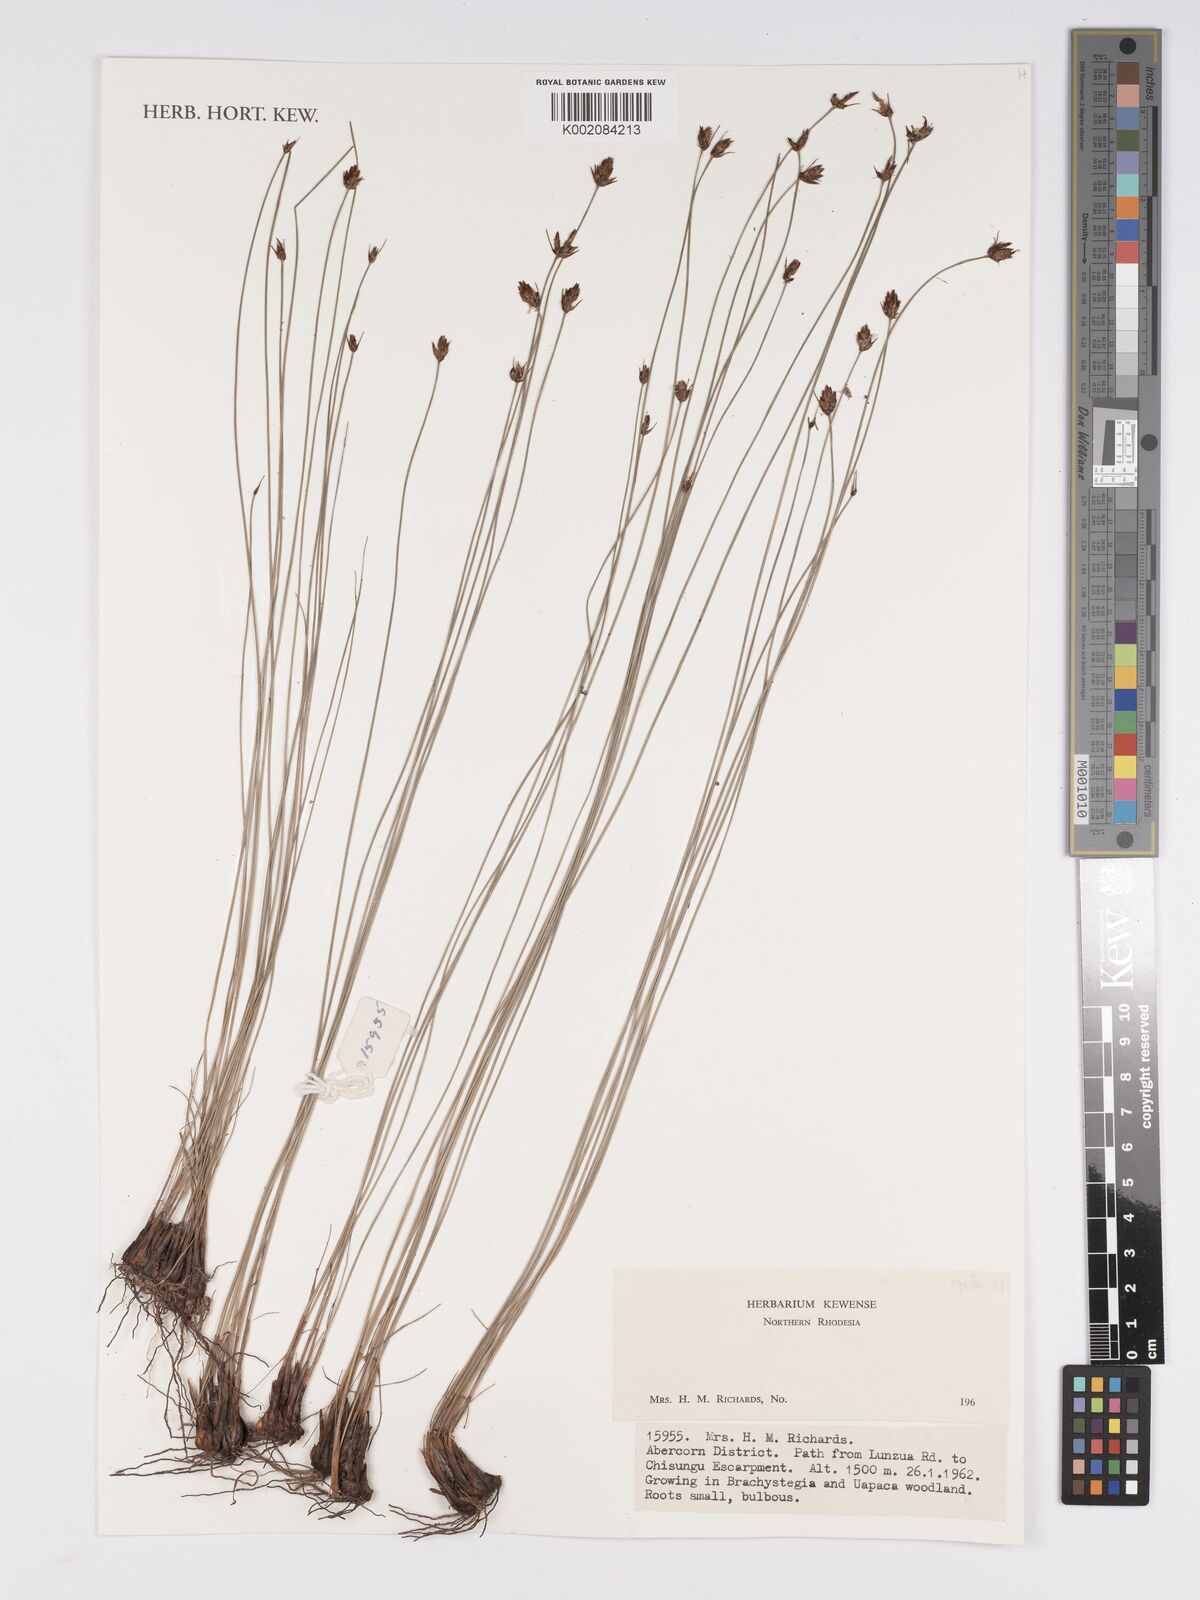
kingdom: Plantae
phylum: Tracheophyta
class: Liliopsida
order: Poales
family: Cyperaceae
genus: Bulbostylis
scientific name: Bulbostylis
